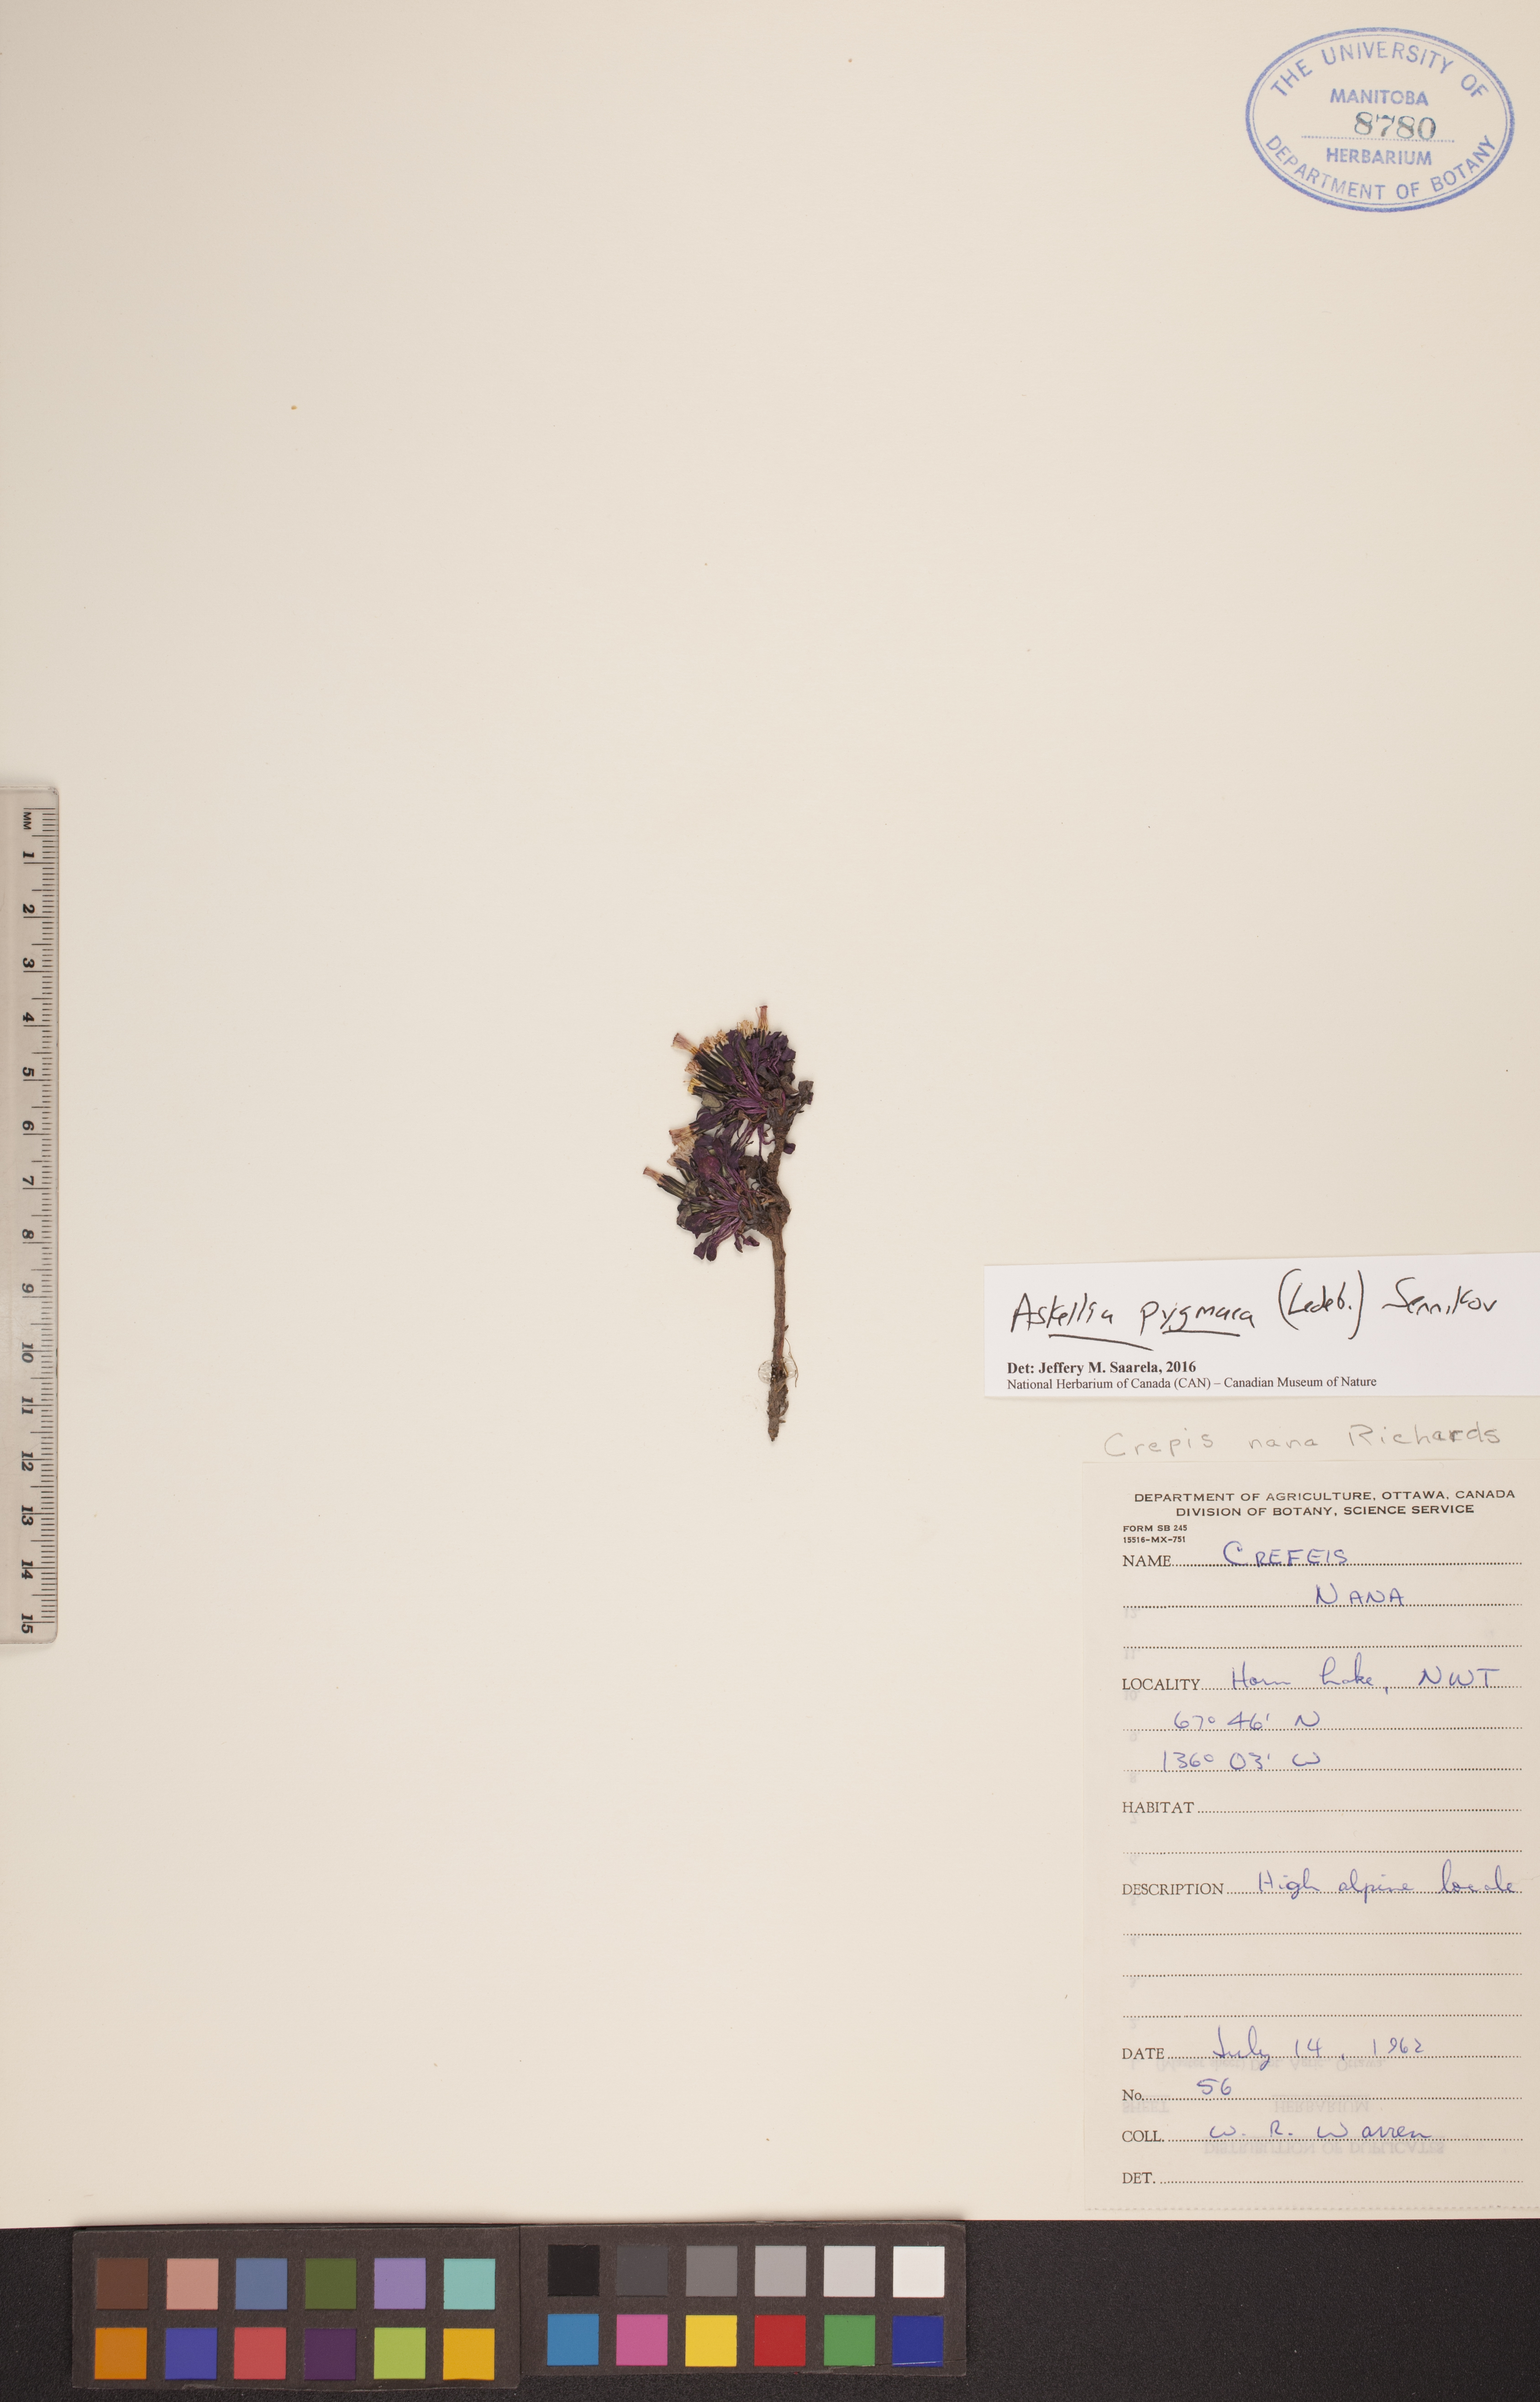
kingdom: Plantae
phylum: Tracheophyta
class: Magnoliopsida
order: Asterales
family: Asteraceae
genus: Askellia
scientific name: Askellia pygmaea
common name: Dwarf alpine hawksbeard
